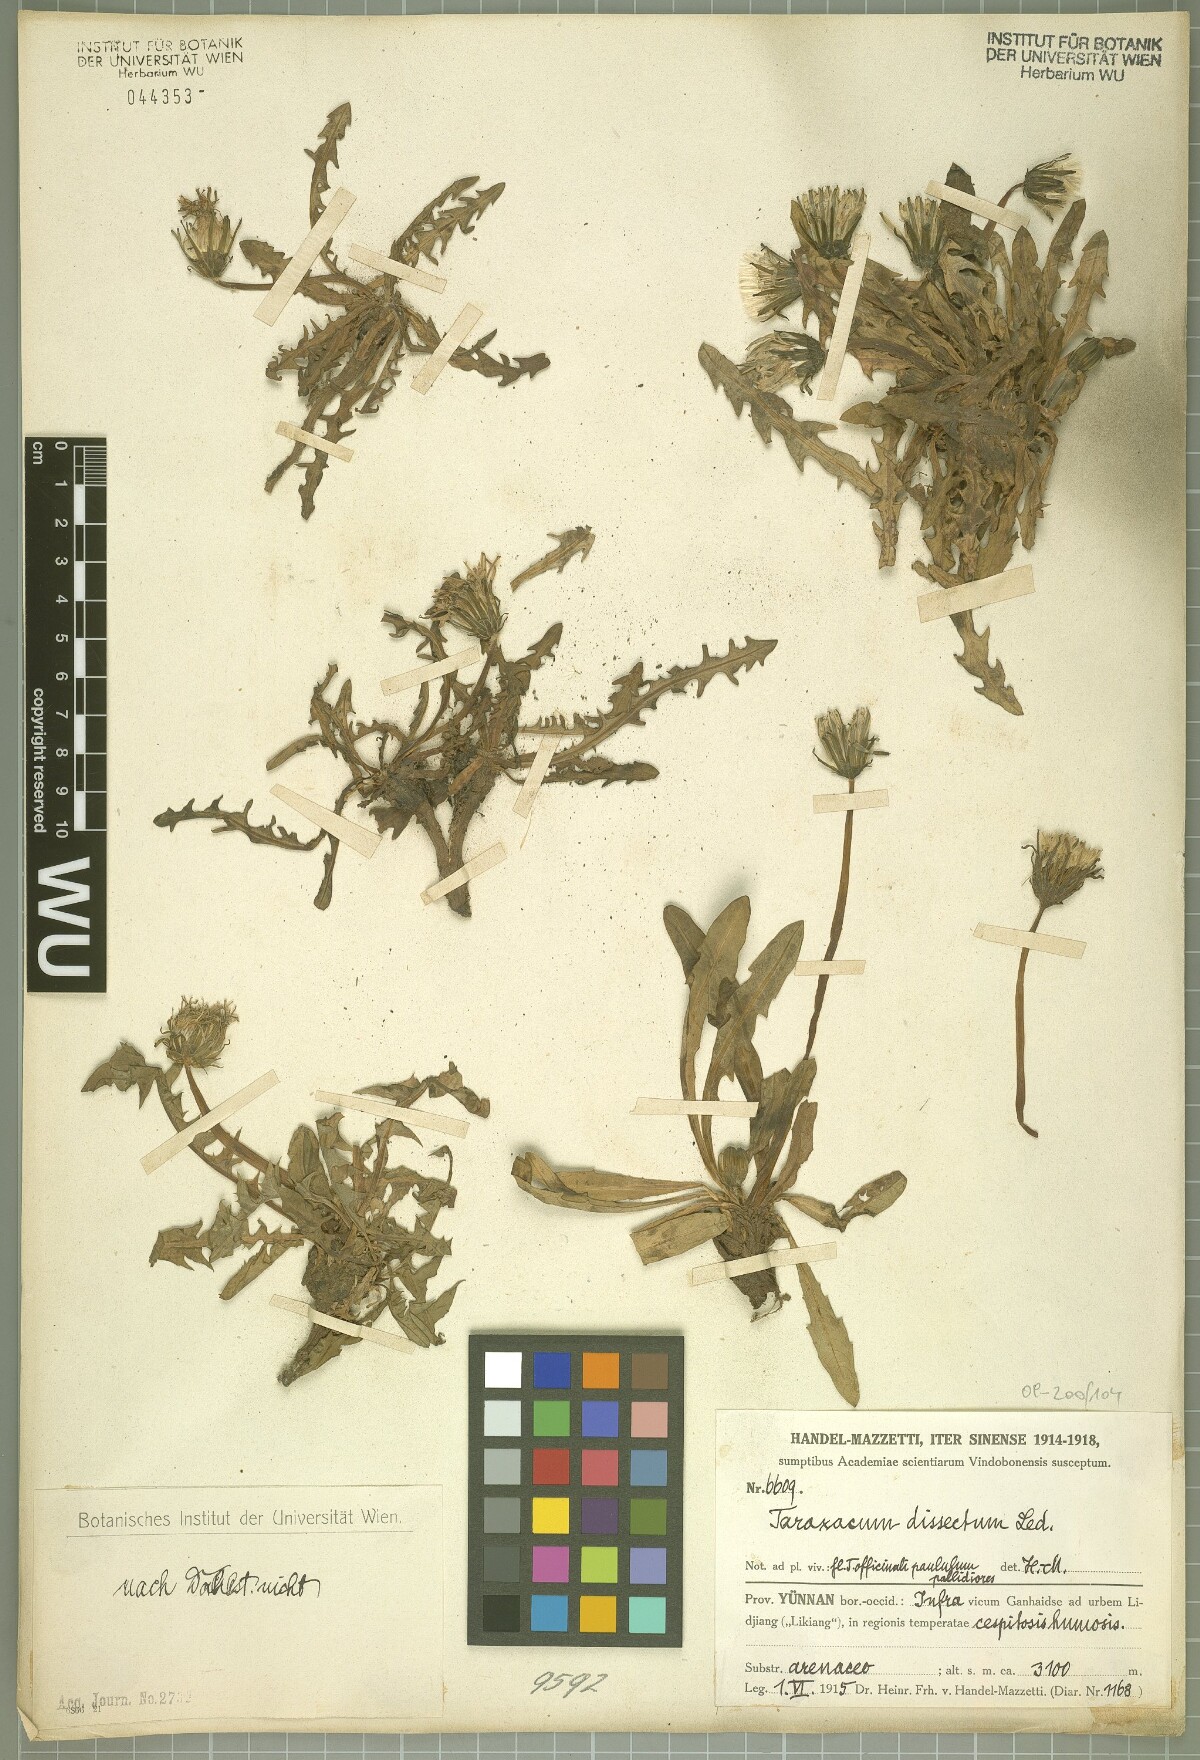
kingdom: Plantae
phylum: Tracheophyta
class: Magnoliopsida
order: Asterales
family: Asteraceae
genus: Taraxacum
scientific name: Taraxacum dissectum
